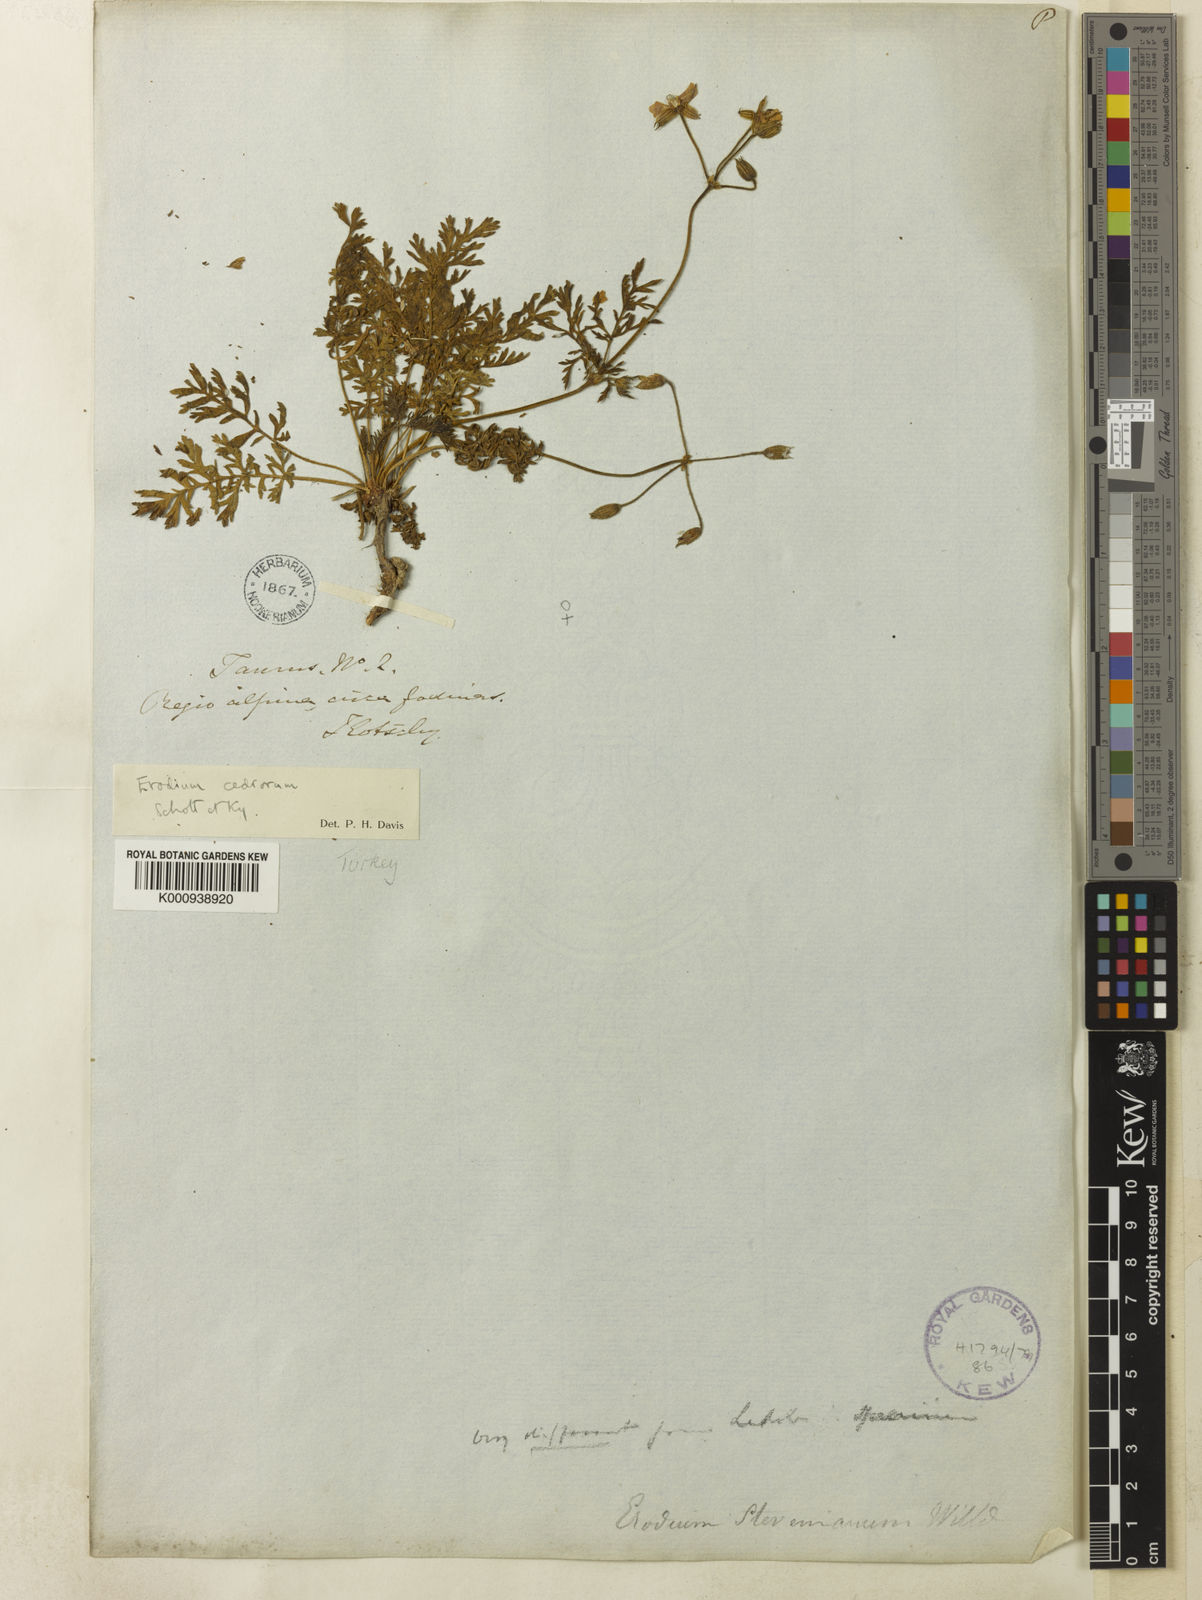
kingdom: Plantae
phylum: Tracheophyta
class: Magnoliopsida
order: Geraniales
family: Geraniaceae
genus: Erodium
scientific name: Erodium cedrorum
